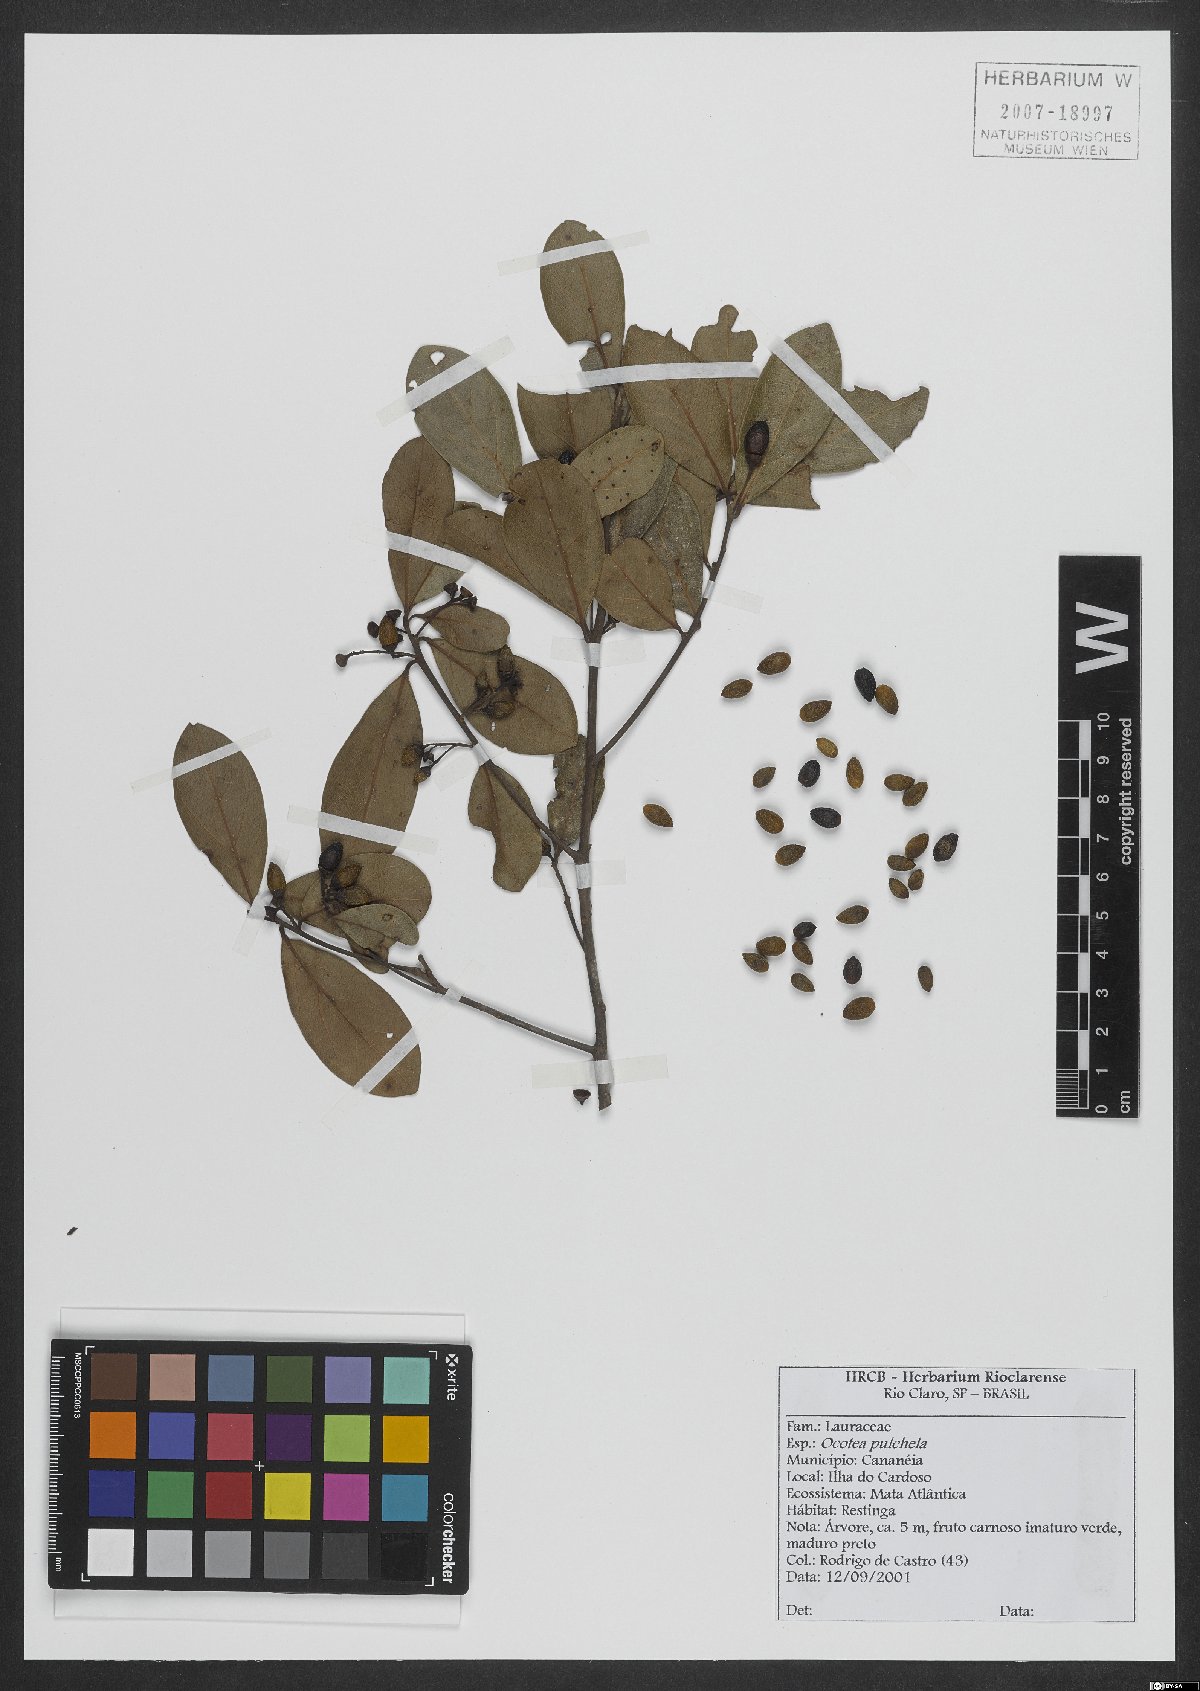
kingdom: Plantae
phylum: Tracheophyta
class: Magnoliopsida
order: Laurales
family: Lauraceae
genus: Mespilodaphne
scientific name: Mespilodaphne pulchella
